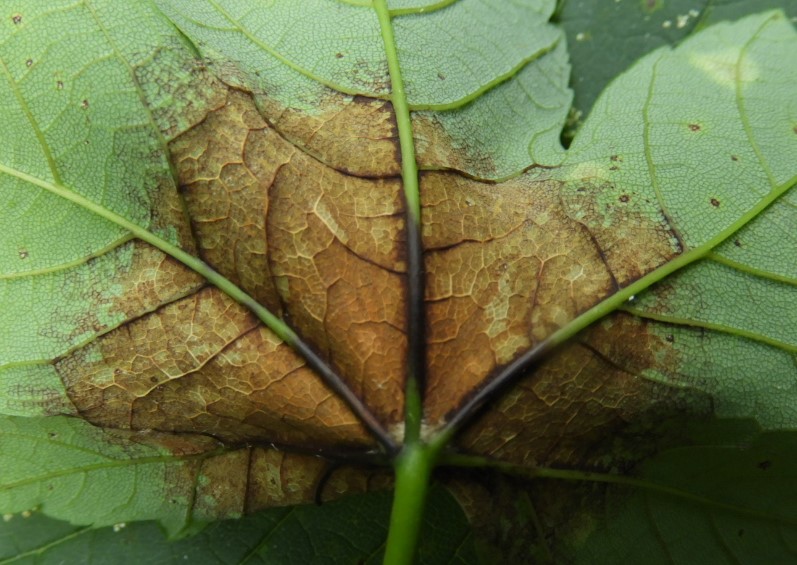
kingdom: Fungi
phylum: Ascomycota
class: Sordariomycetes
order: Diaporthales
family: Gnomoniaceae
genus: Pleuroceras
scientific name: Pleuroceras pseudoplatani
